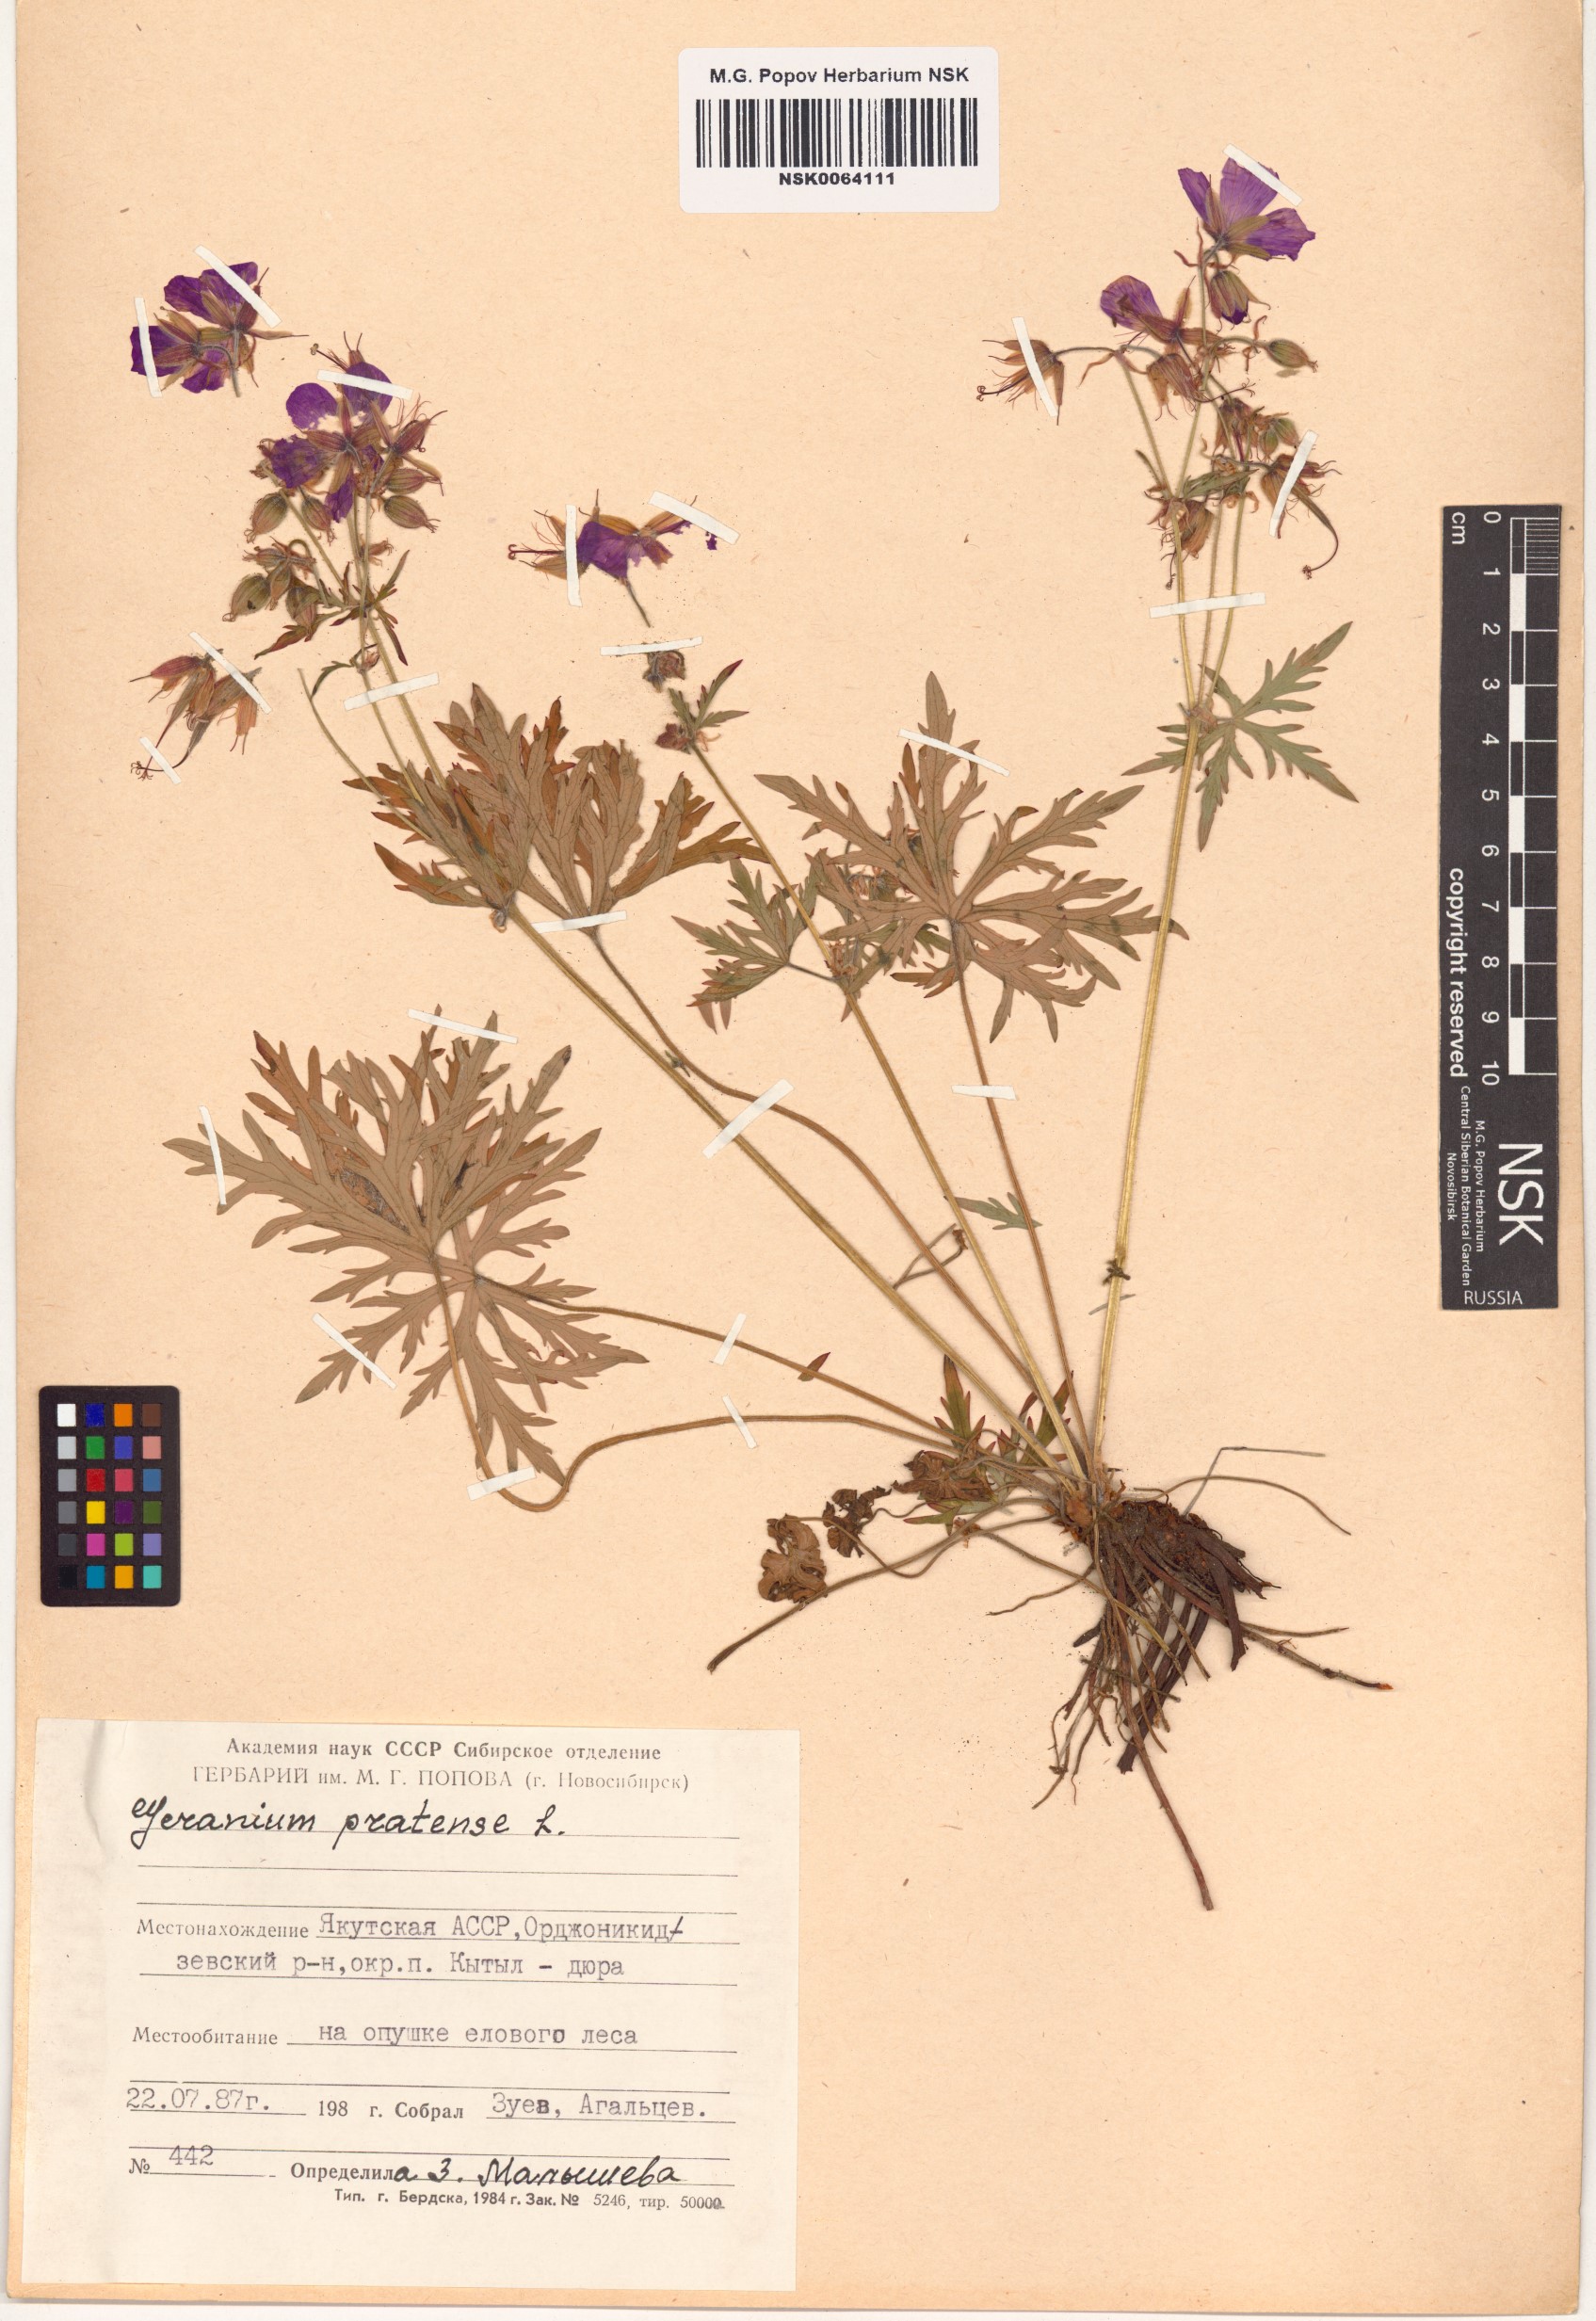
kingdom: Plantae
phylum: Tracheophyta
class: Magnoliopsida
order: Geraniales
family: Geraniaceae
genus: Geranium
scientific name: Geranium pratense
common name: Meadow crane's-bill
